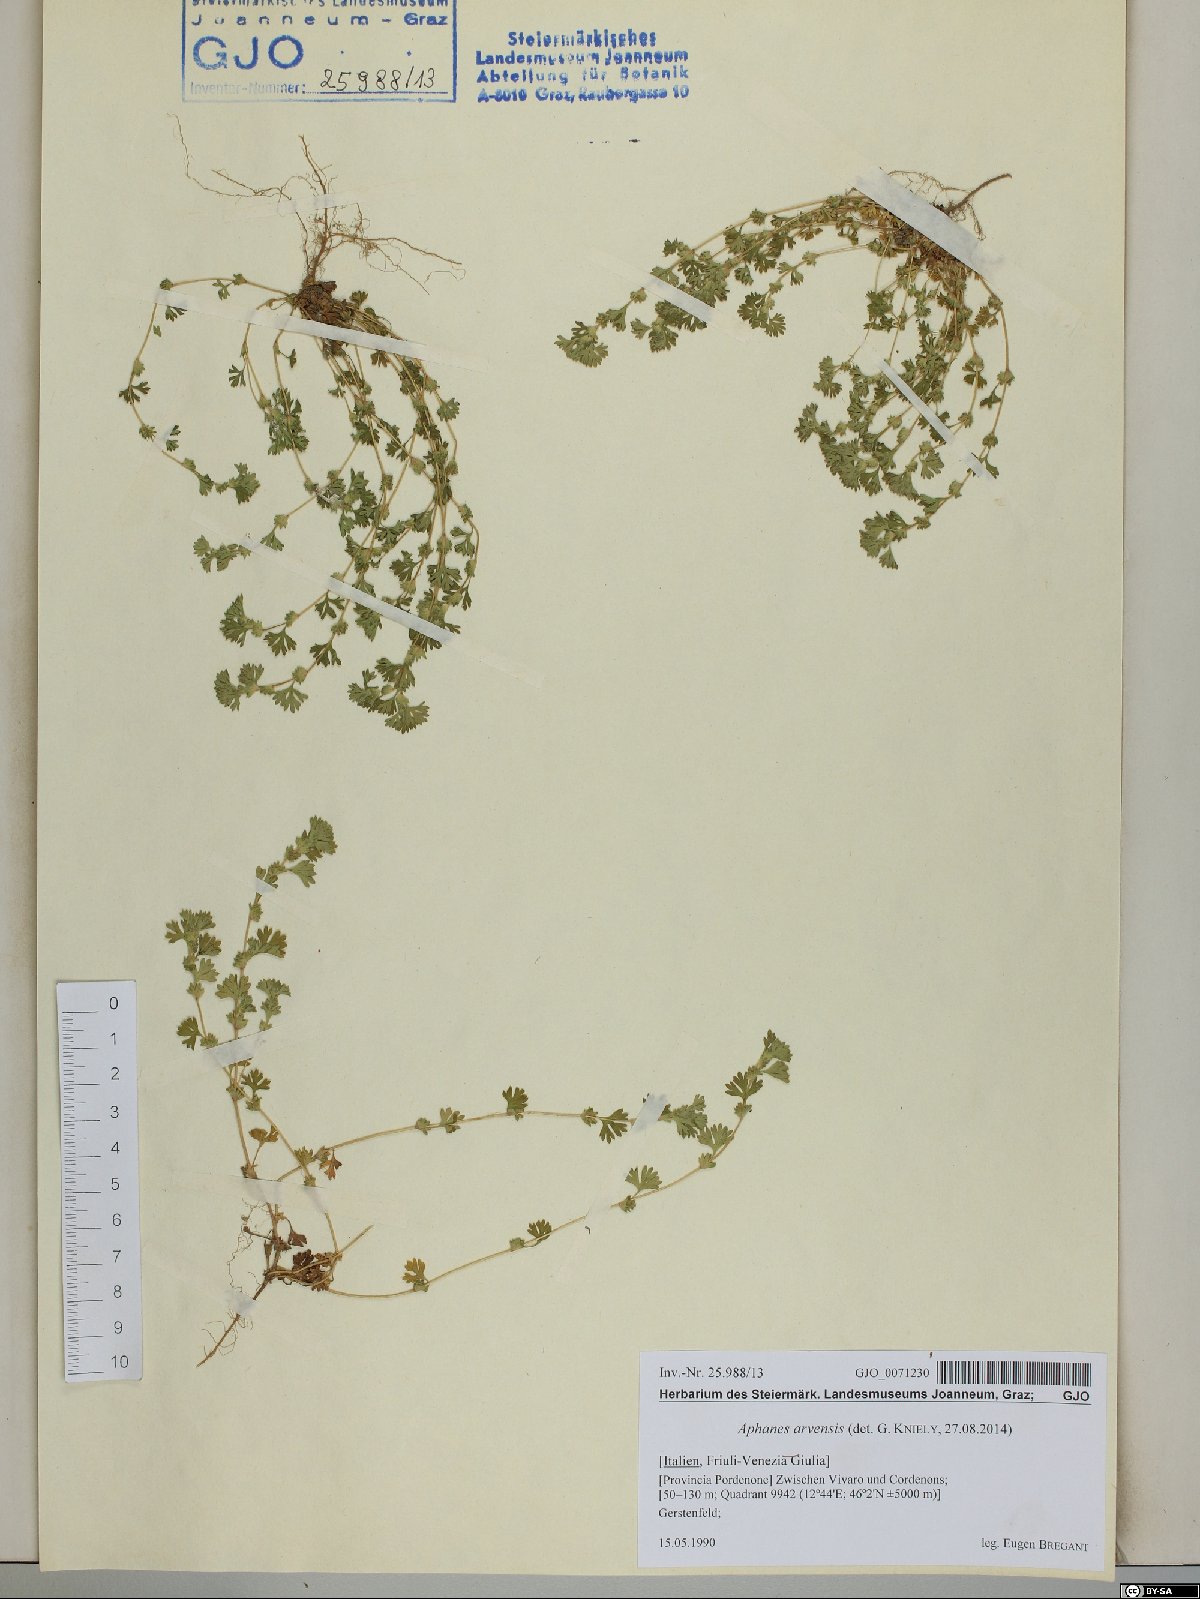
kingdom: Plantae
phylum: Tracheophyta
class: Magnoliopsida
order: Rosales
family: Rosaceae
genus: Aphanes
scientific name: Aphanes arvensis
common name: Parsley-piert
